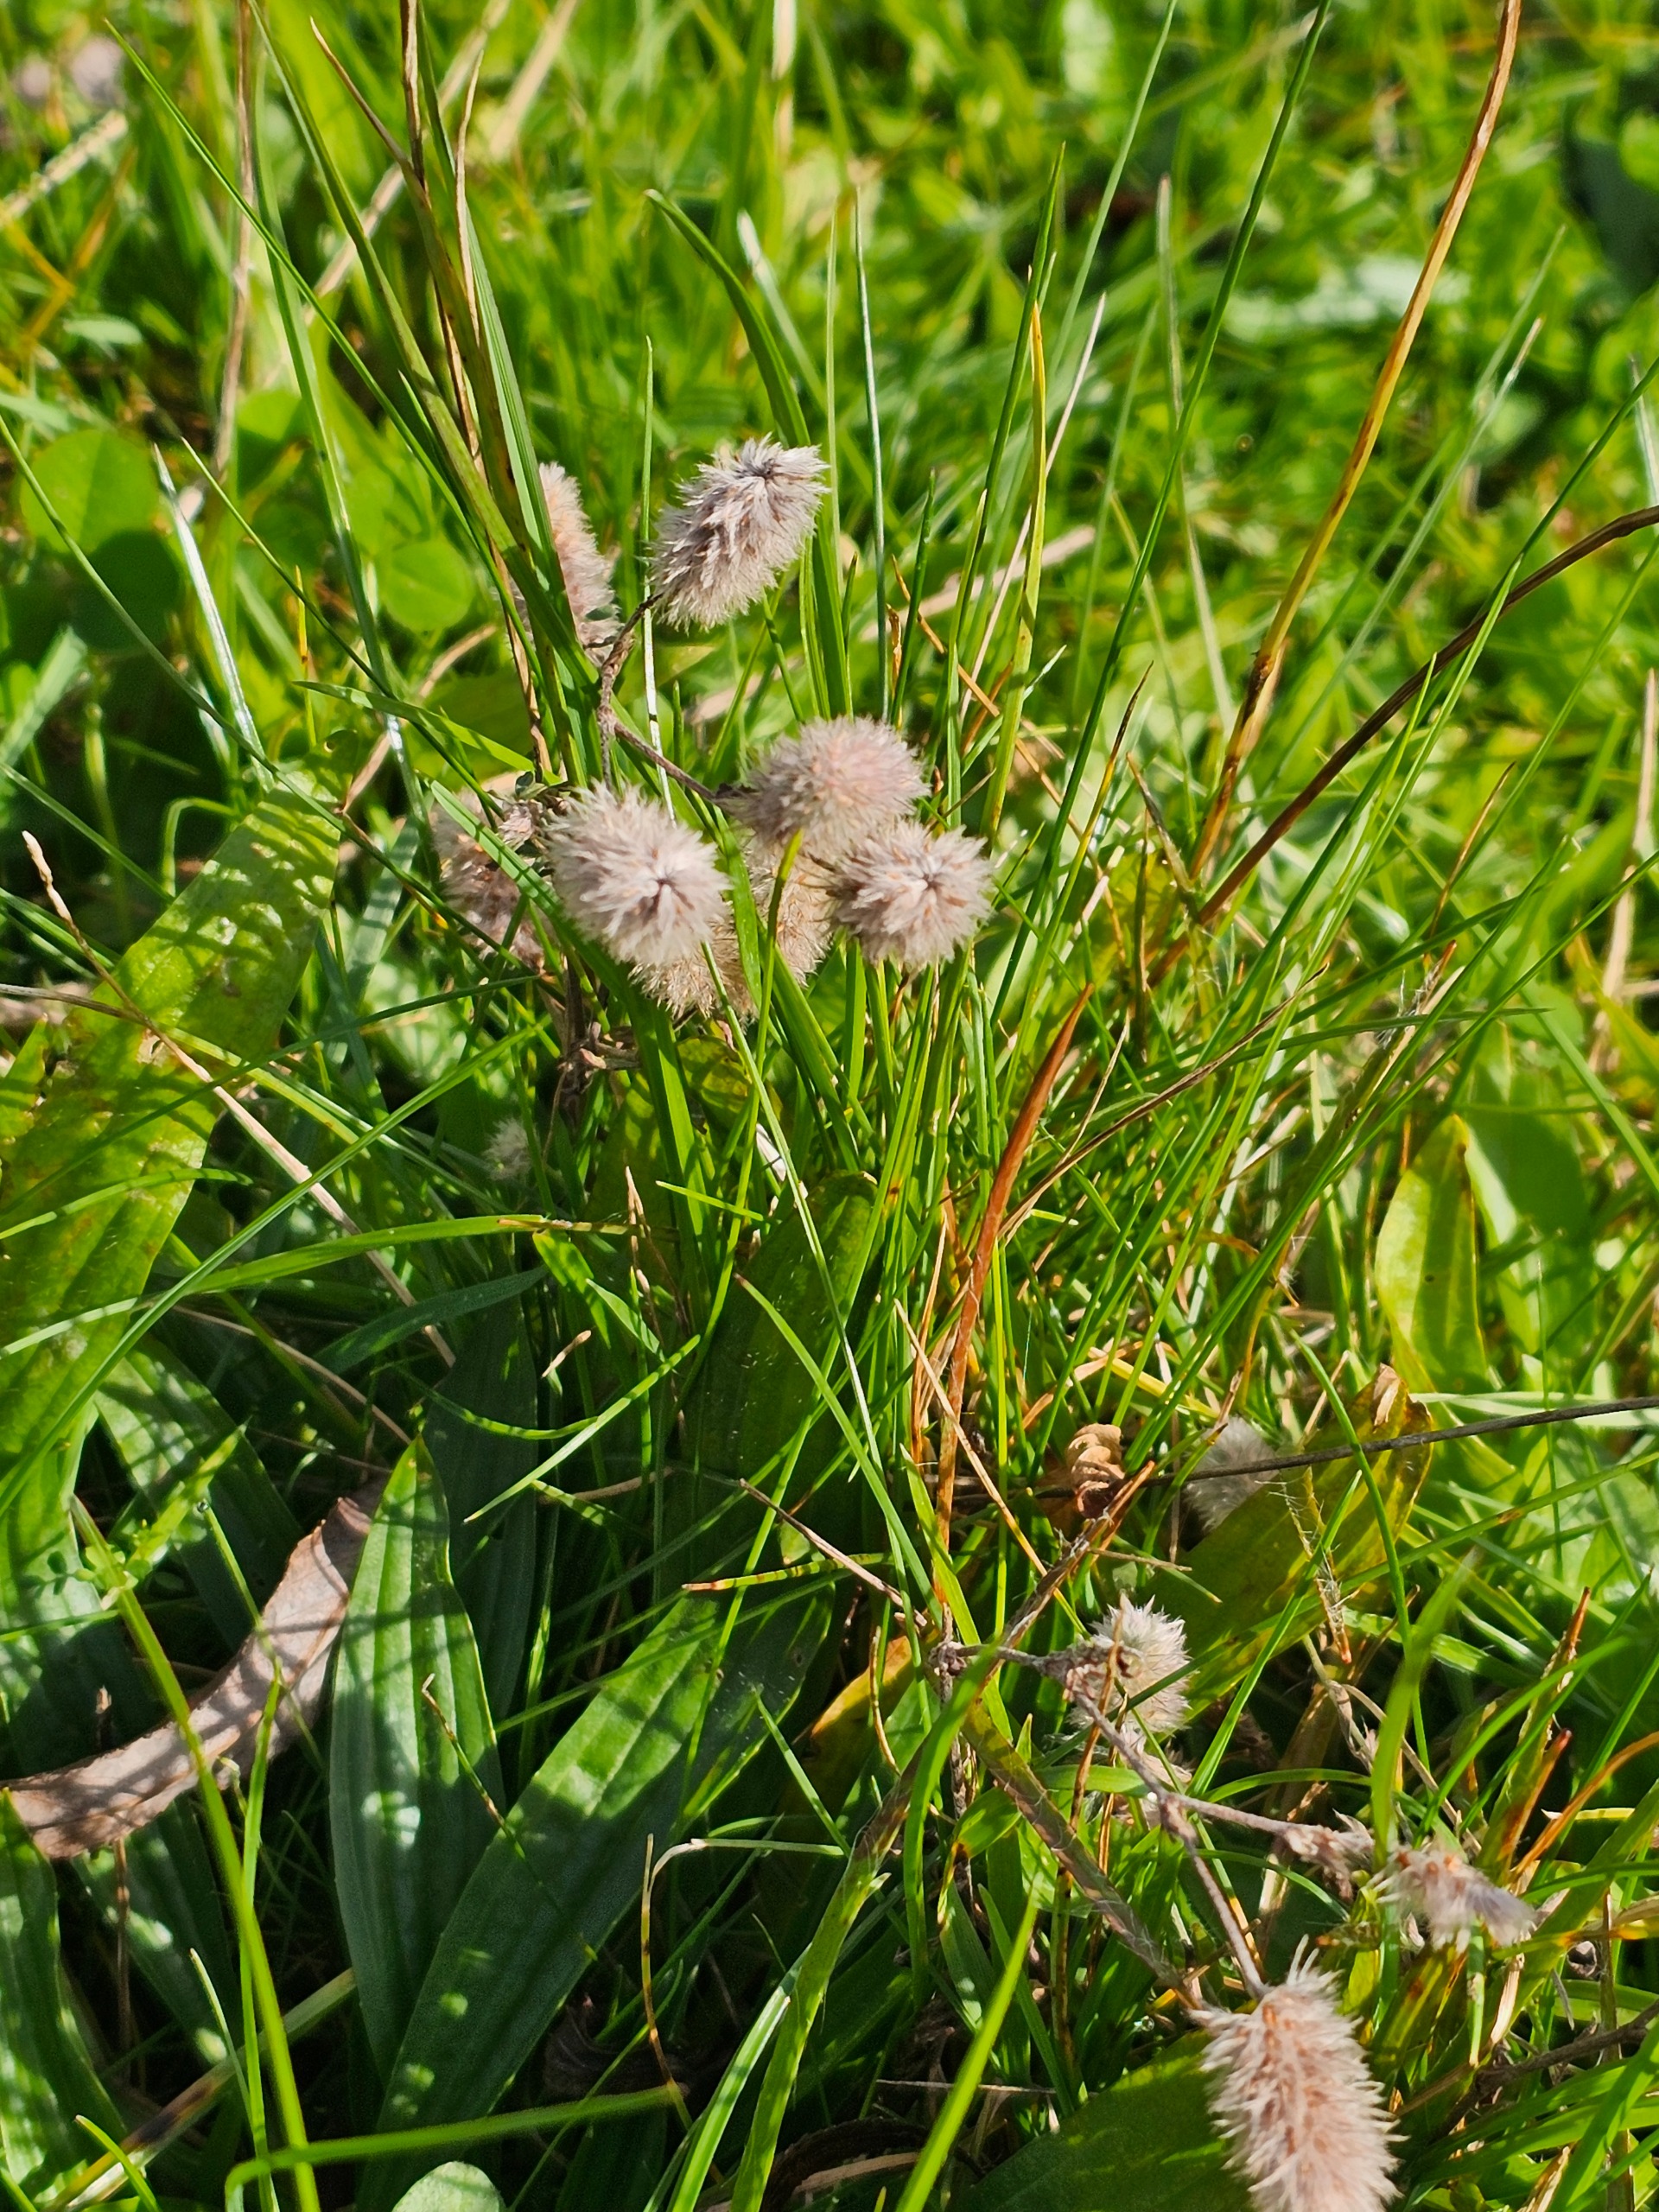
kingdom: Plantae
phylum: Tracheophyta
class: Magnoliopsida
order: Fabales
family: Fabaceae
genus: Trifolium
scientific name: Trifolium arvense
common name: Hare-kløver
